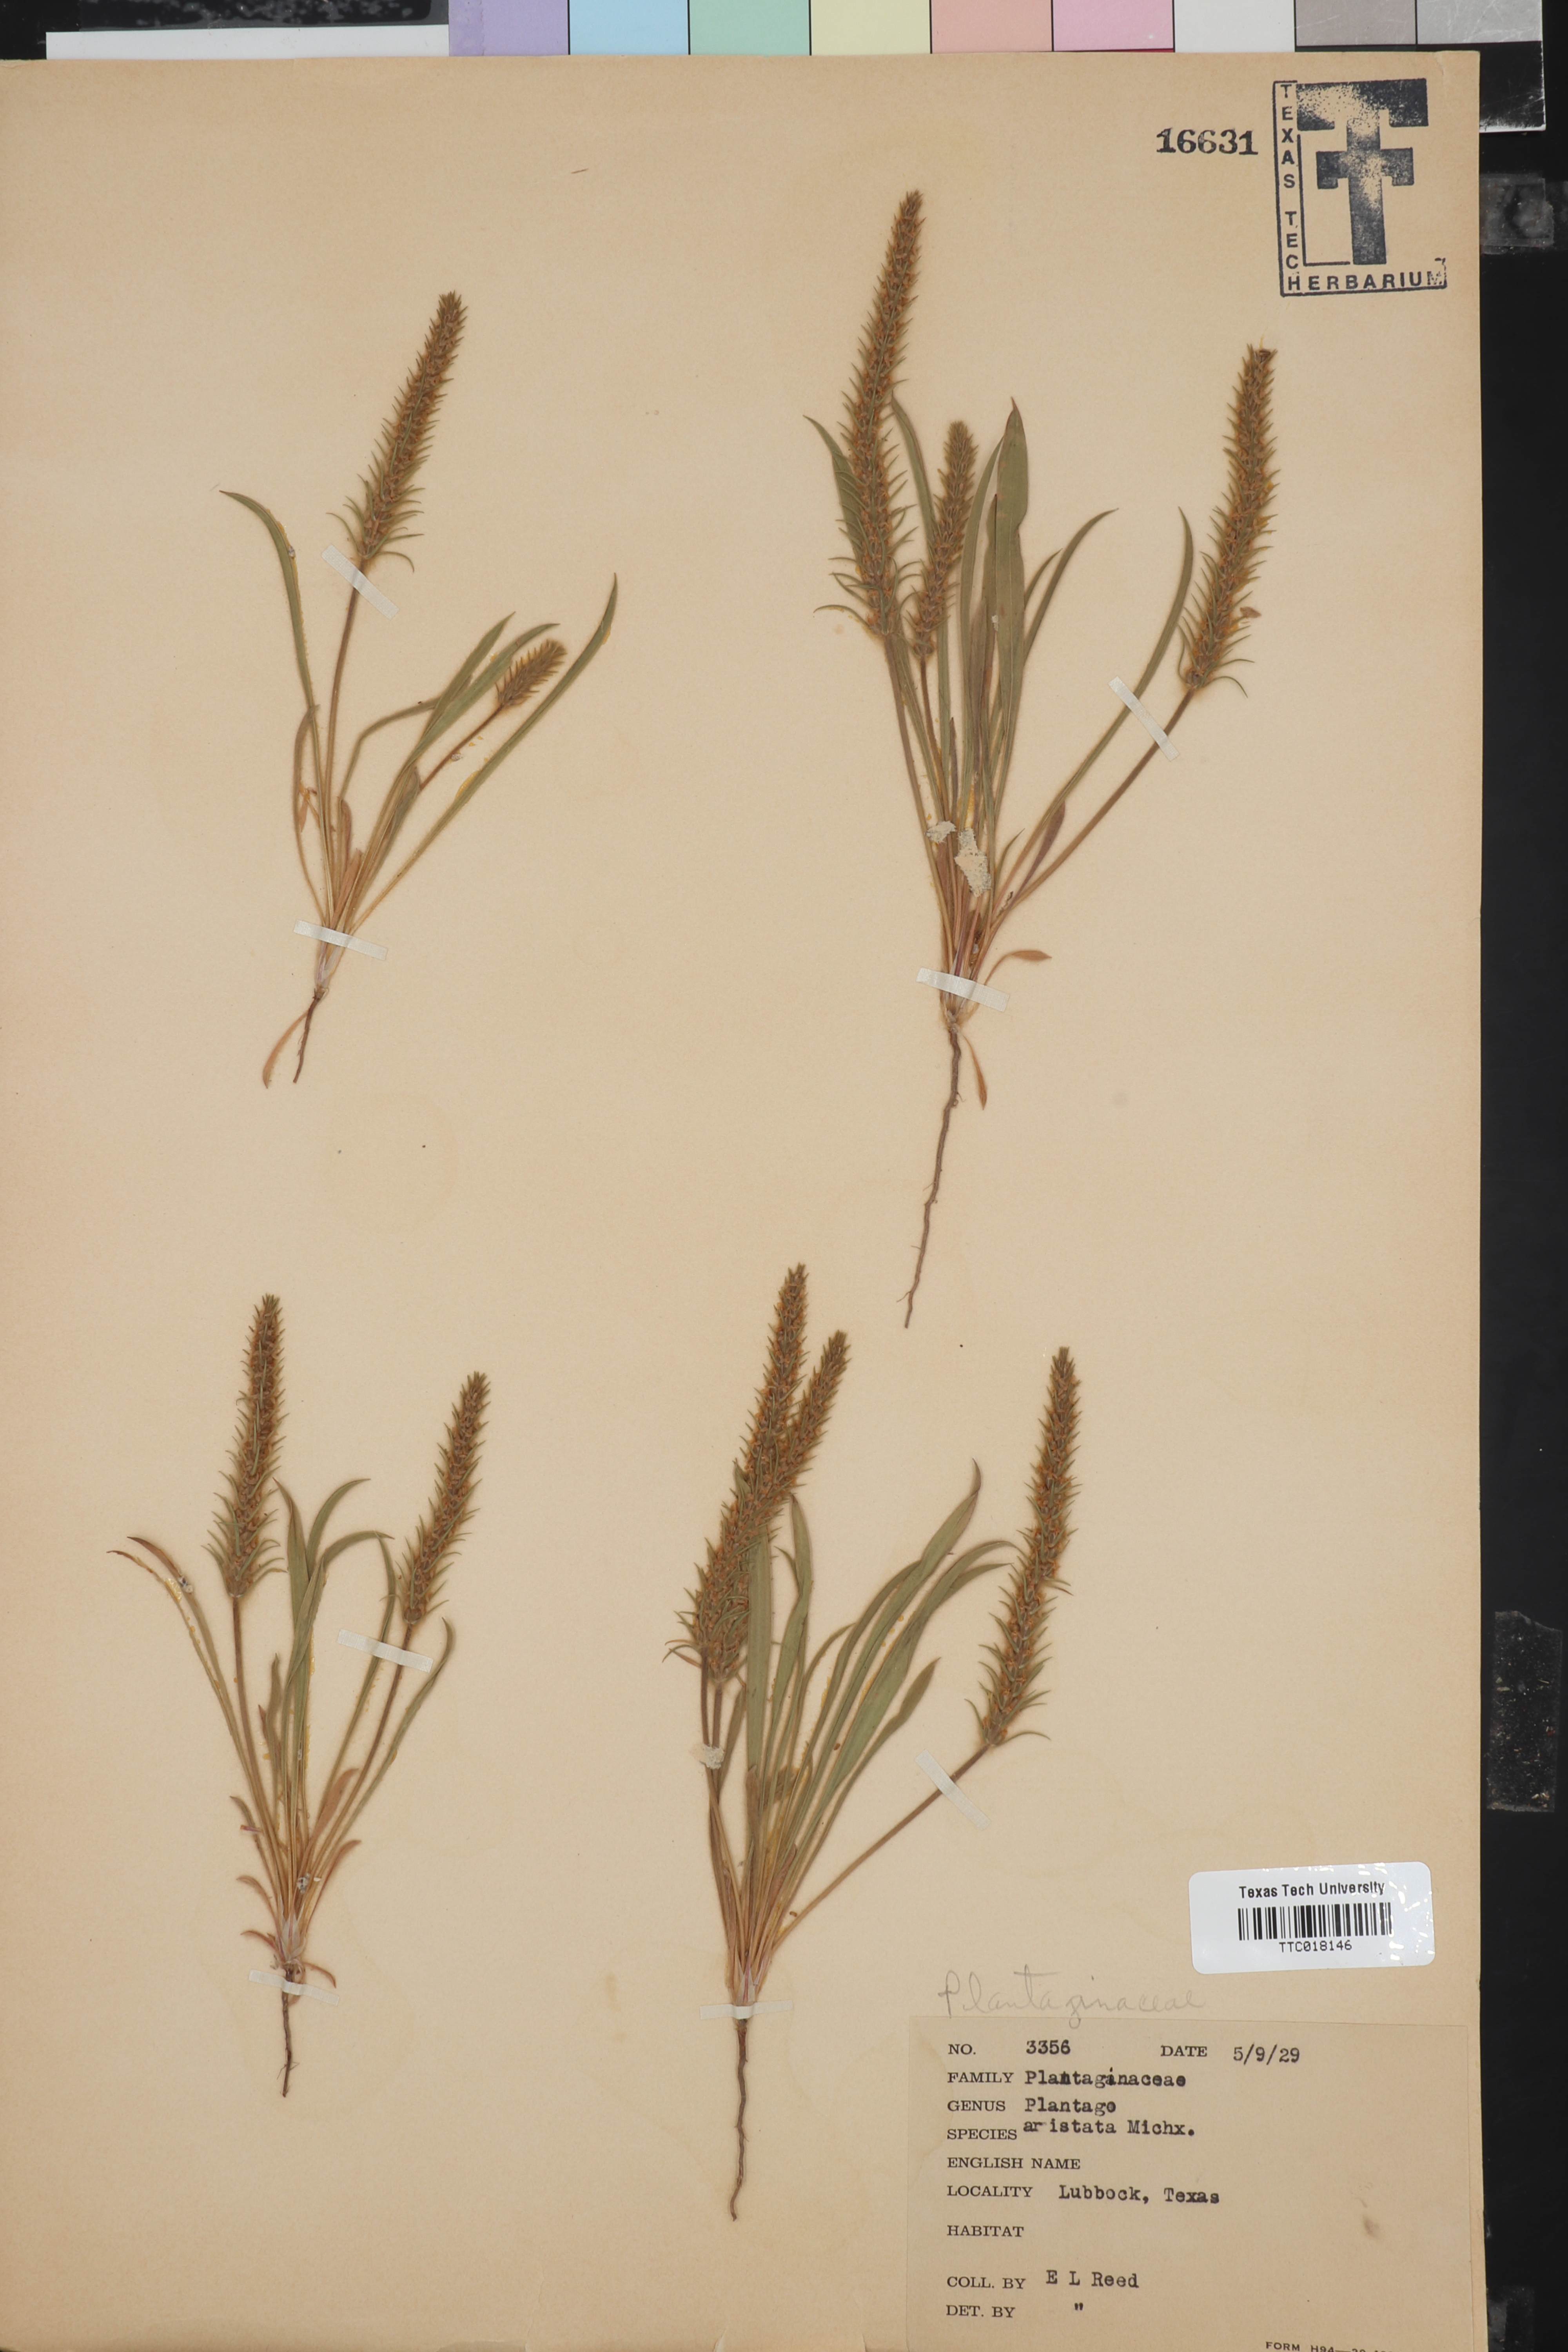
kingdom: Plantae
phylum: Tracheophyta
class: Magnoliopsida
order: Lamiales
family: Plantaginaceae
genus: Plantago
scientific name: Plantago aristata
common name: Bracted plantain
